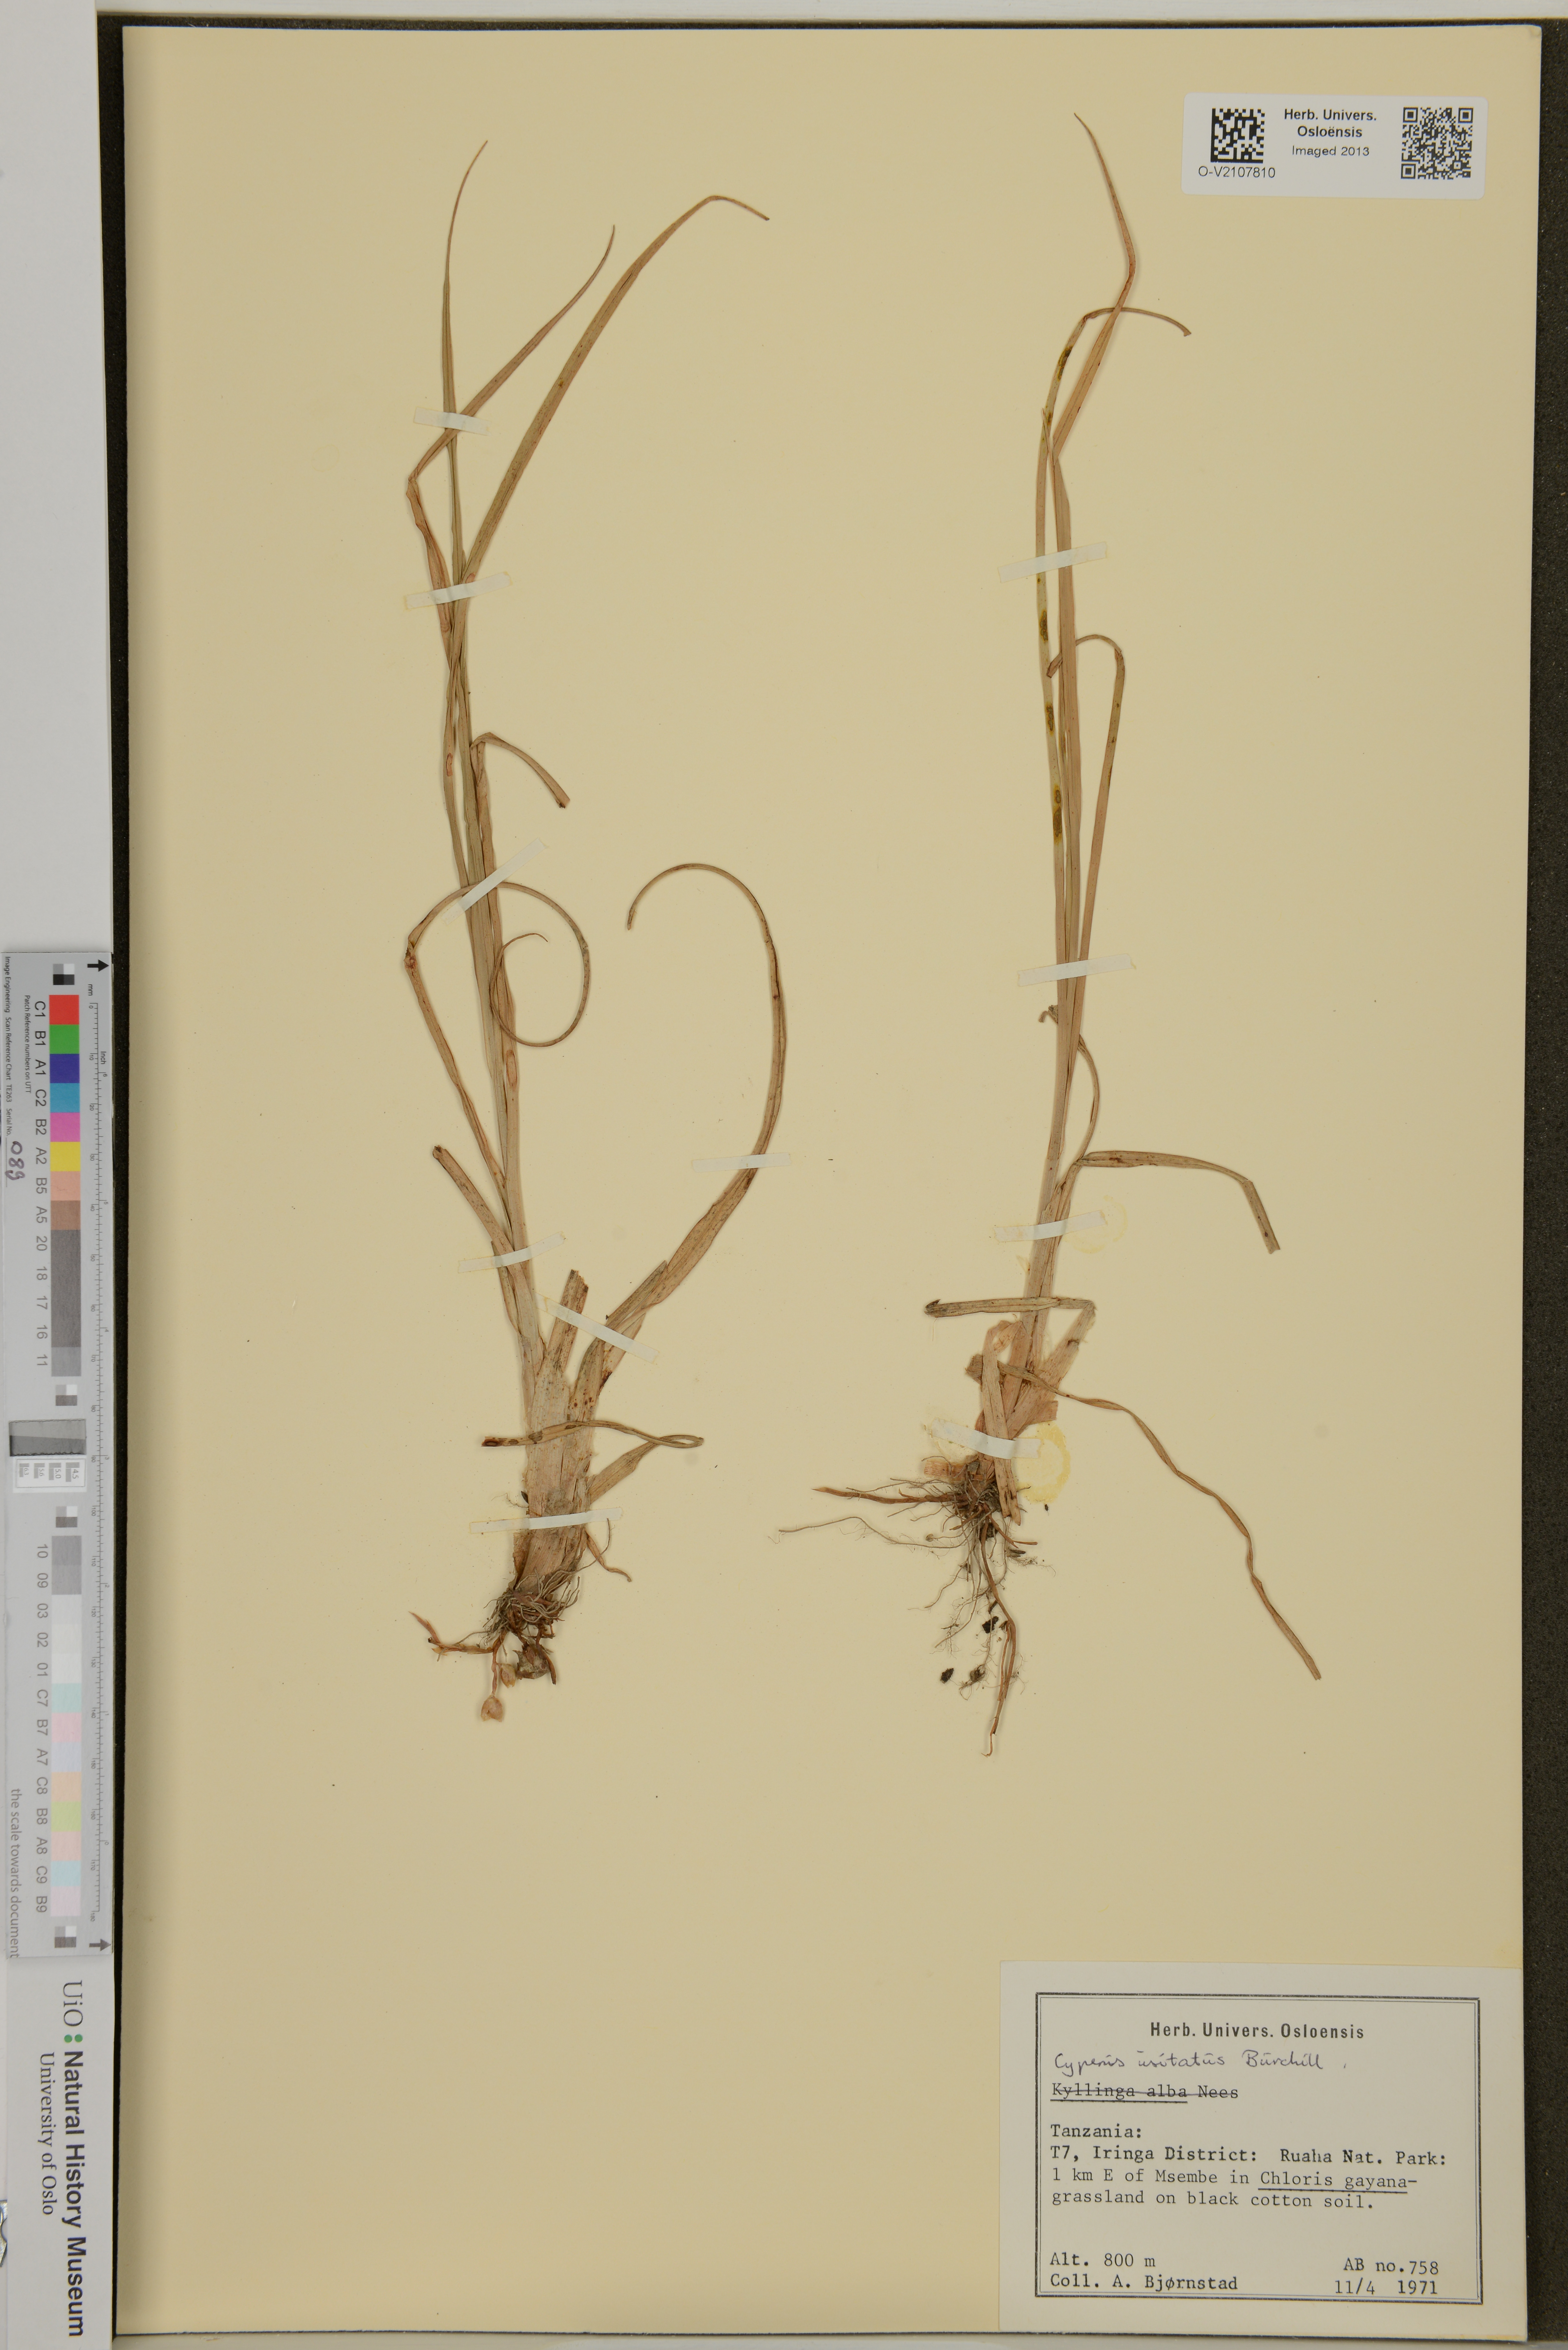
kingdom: Plantae
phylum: Tracheophyta
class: Liliopsida
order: Poales
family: Cyperaceae
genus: Cyperus
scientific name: Cyperus usitatus
